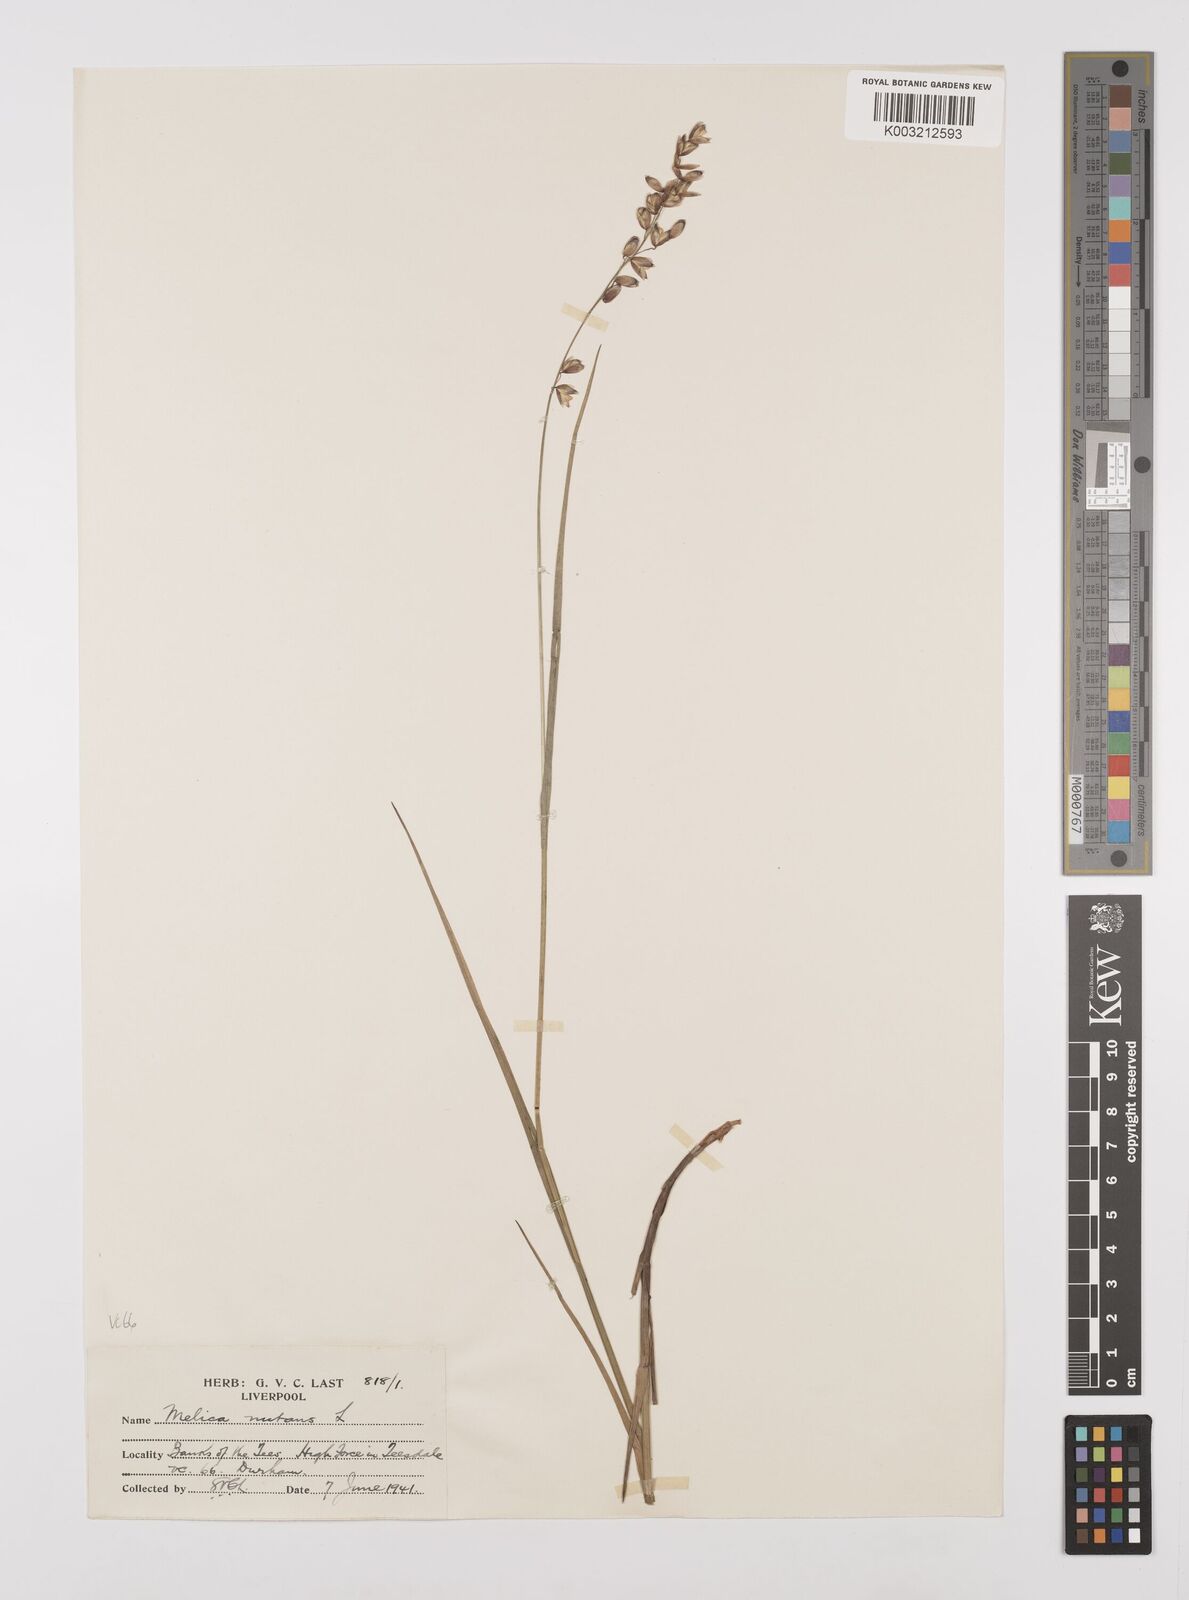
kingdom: Plantae
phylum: Tracheophyta
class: Liliopsida
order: Poales
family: Poaceae
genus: Melica
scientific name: Melica
